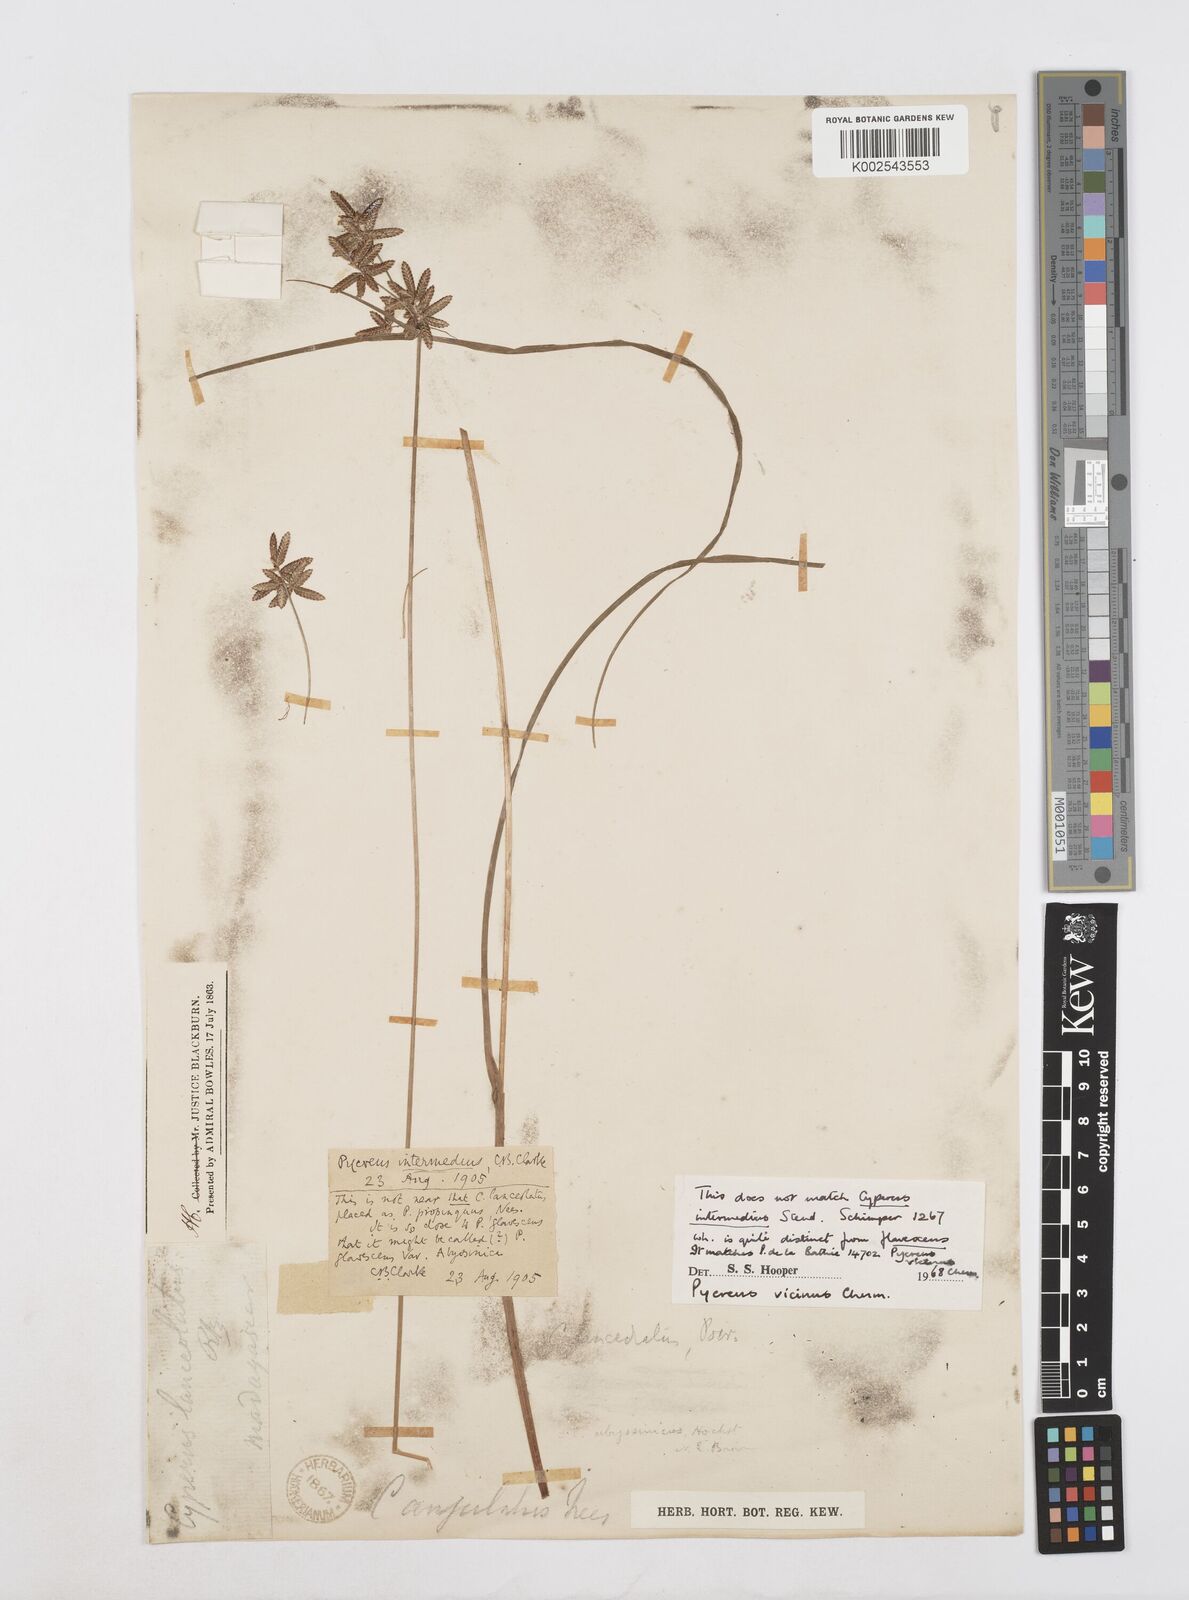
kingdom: Plantae
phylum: Tracheophyta
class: Liliopsida
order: Poales
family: Cyperaceae
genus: Cyperus
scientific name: Cyperus
